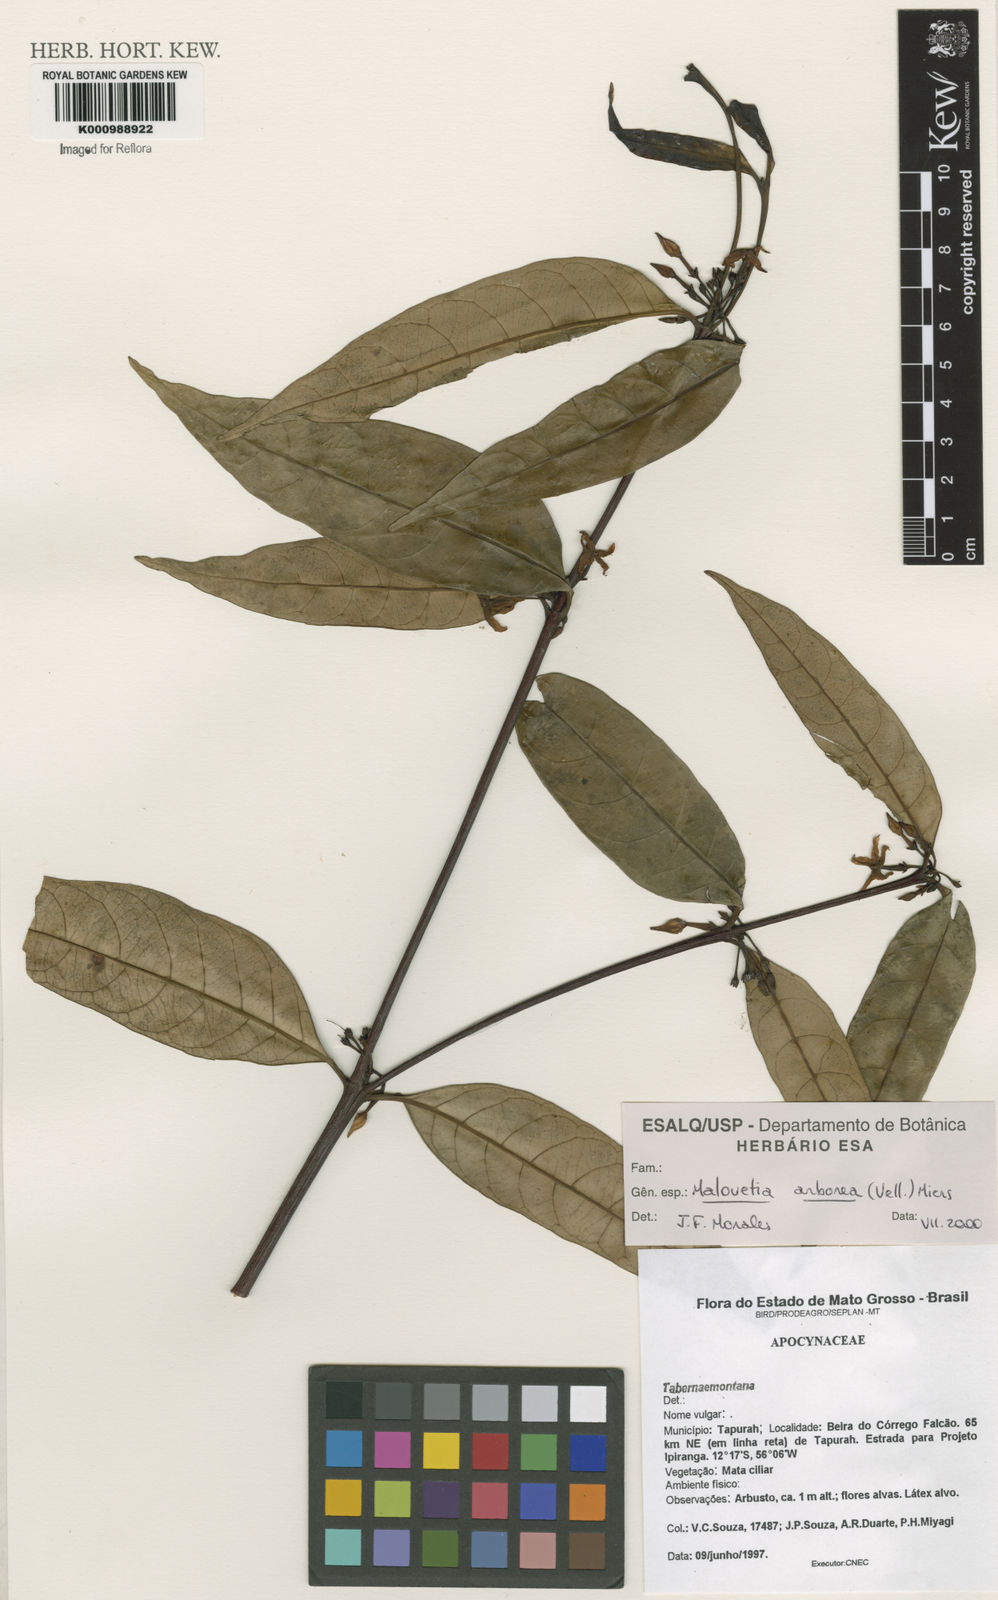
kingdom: Plantae
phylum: Tracheophyta
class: Magnoliopsida
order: Gentianales
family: Apocynaceae
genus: Malouetia
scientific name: Malouetia cestroides
